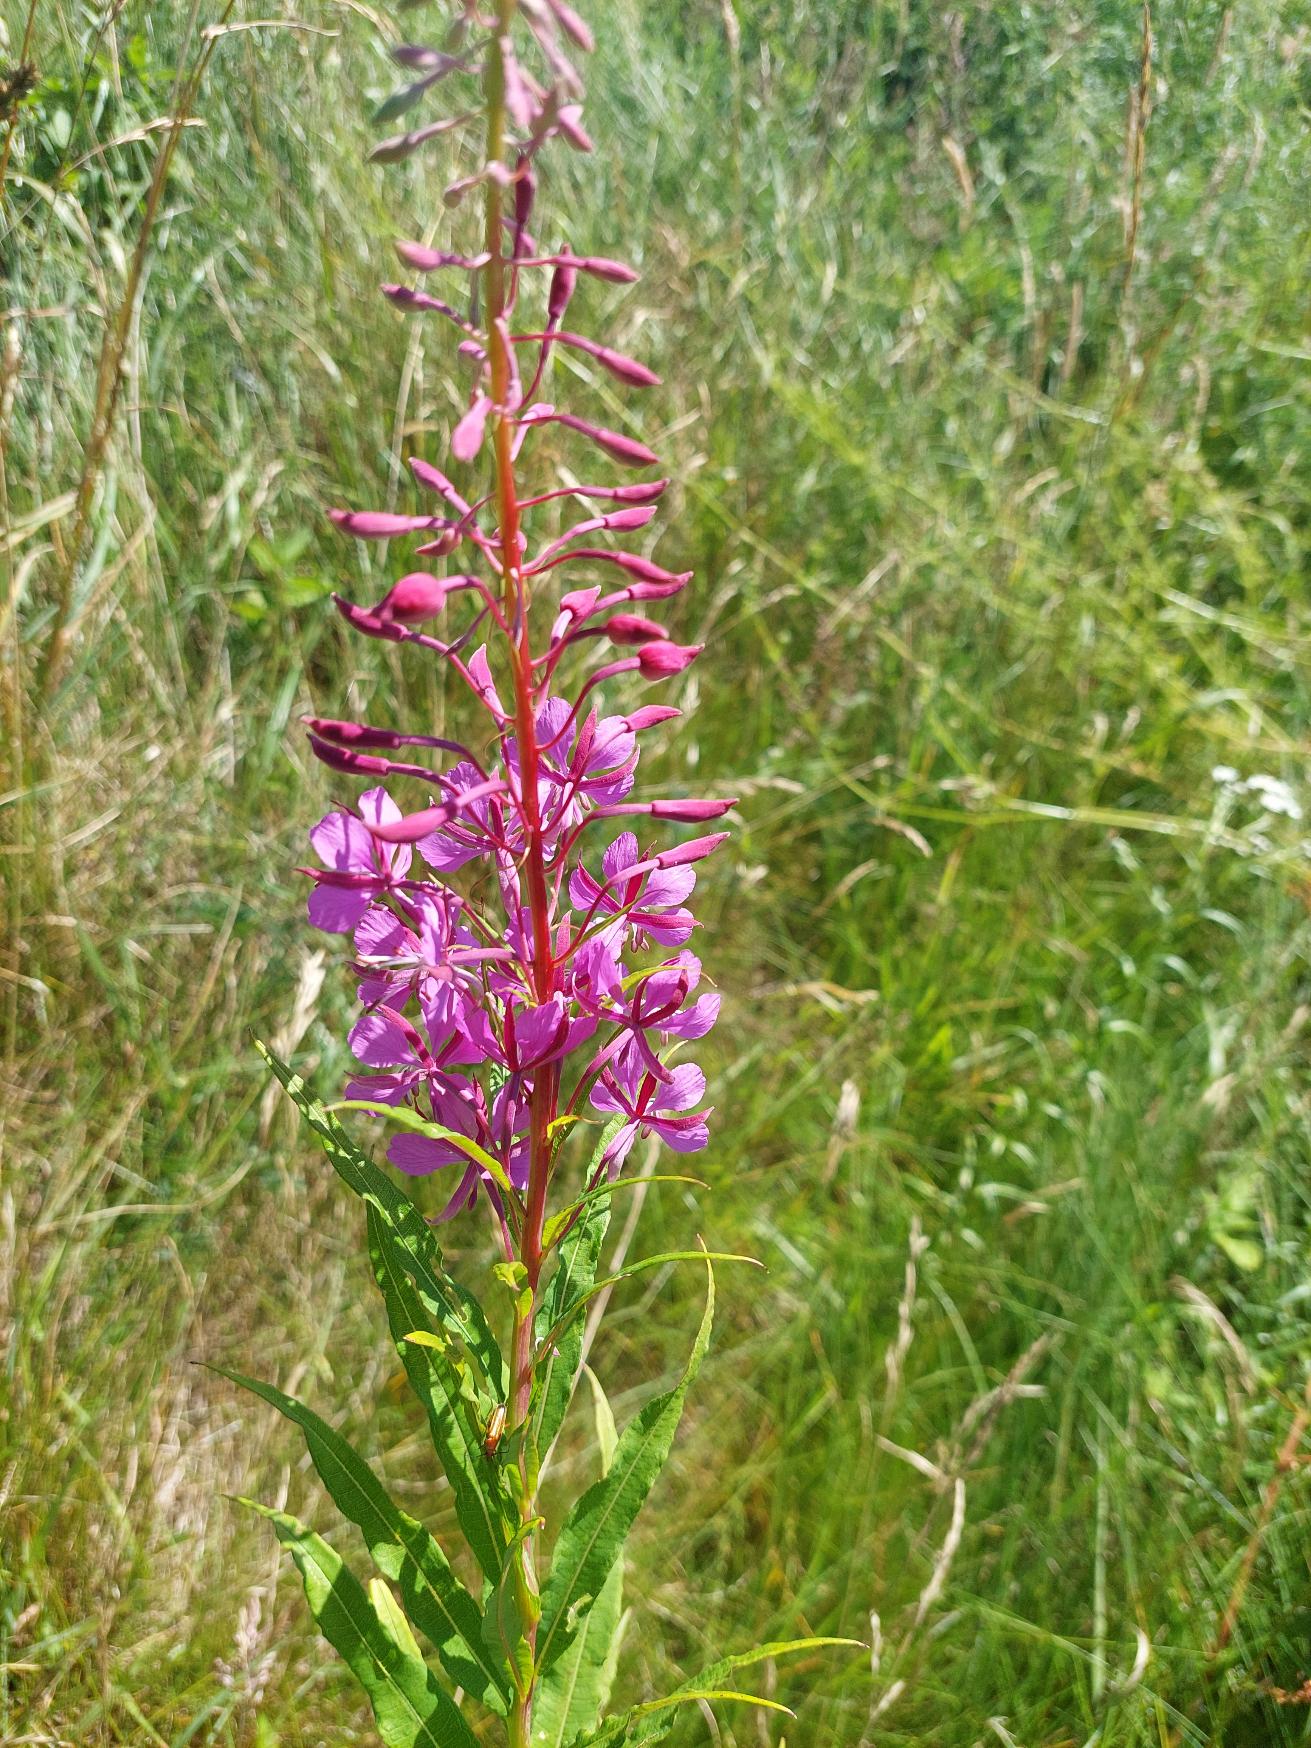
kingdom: Plantae
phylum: Tracheophyta
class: Magnoliopsida
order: Myrtales
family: Onagraceae
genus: Chamaenerion
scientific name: Chamaenerion angustifolium
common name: Gederams
